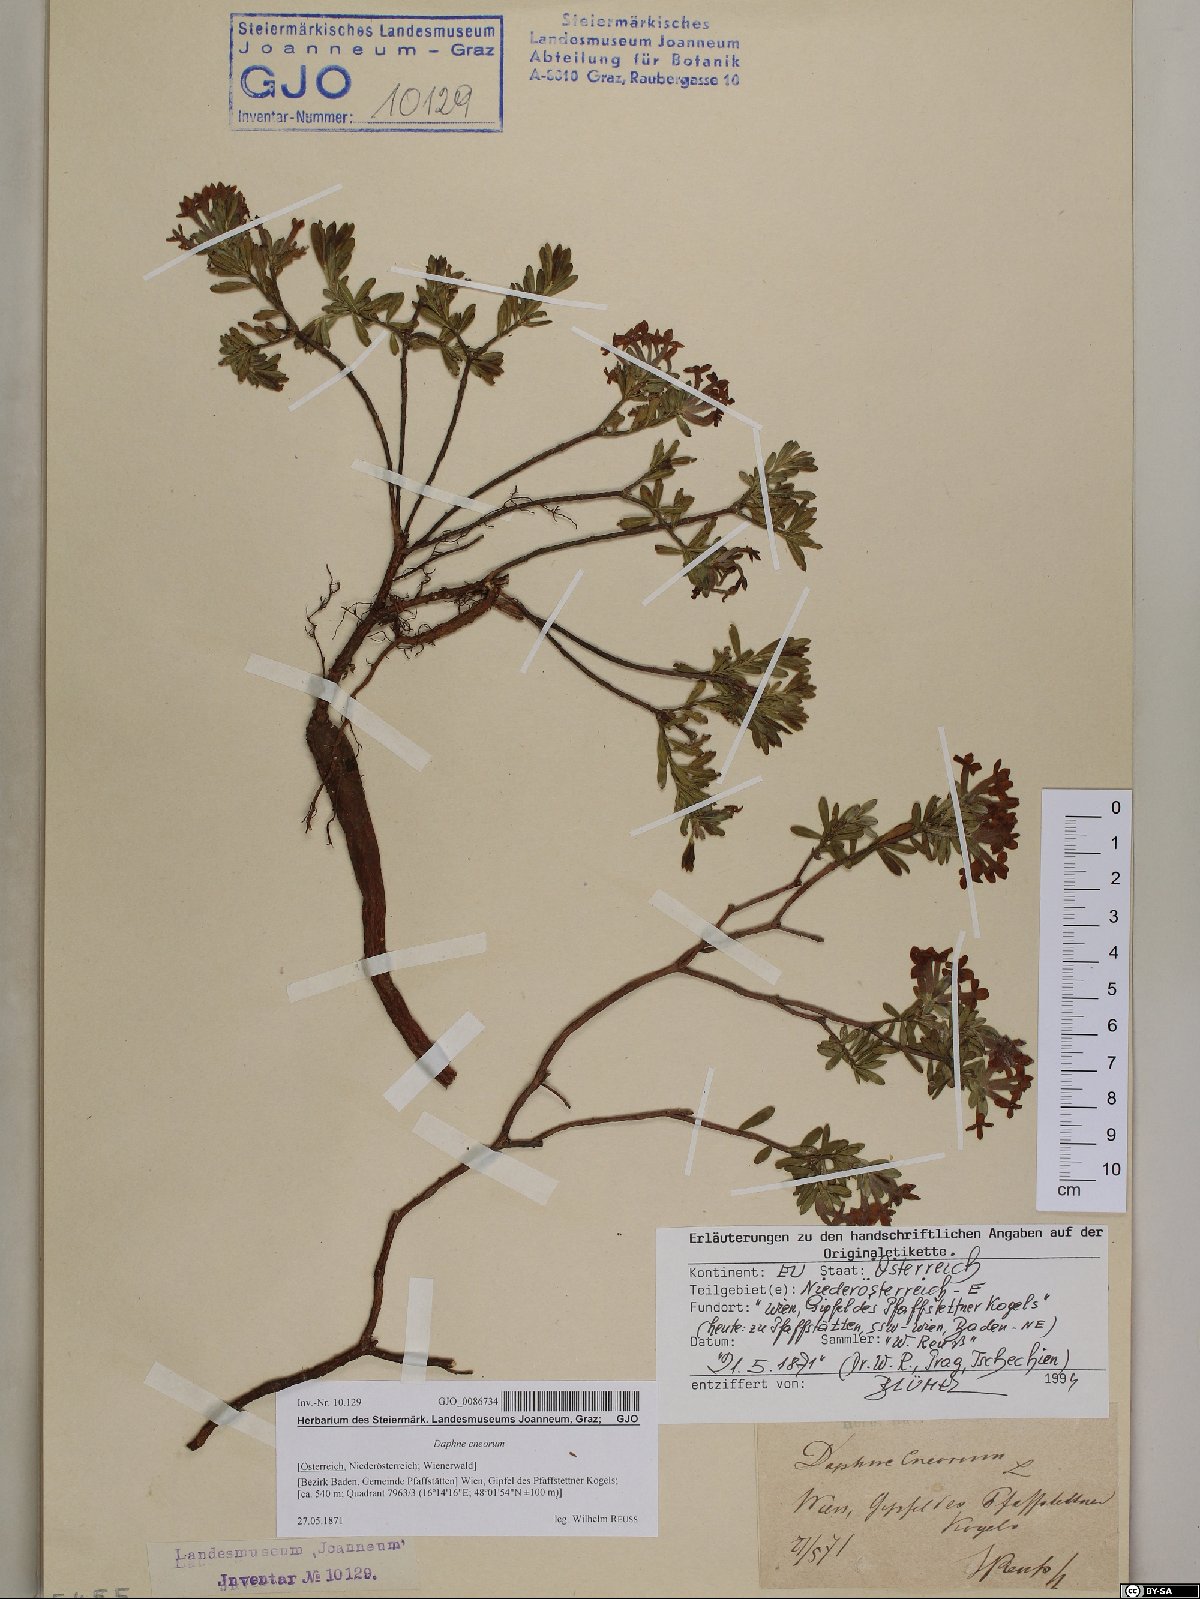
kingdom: Plantae
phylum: Tracheophyta
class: Magnoliopsida
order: Malvales
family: Thymelaeaceae
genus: Daphne
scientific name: Daphne cneorum
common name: Garland-flower
